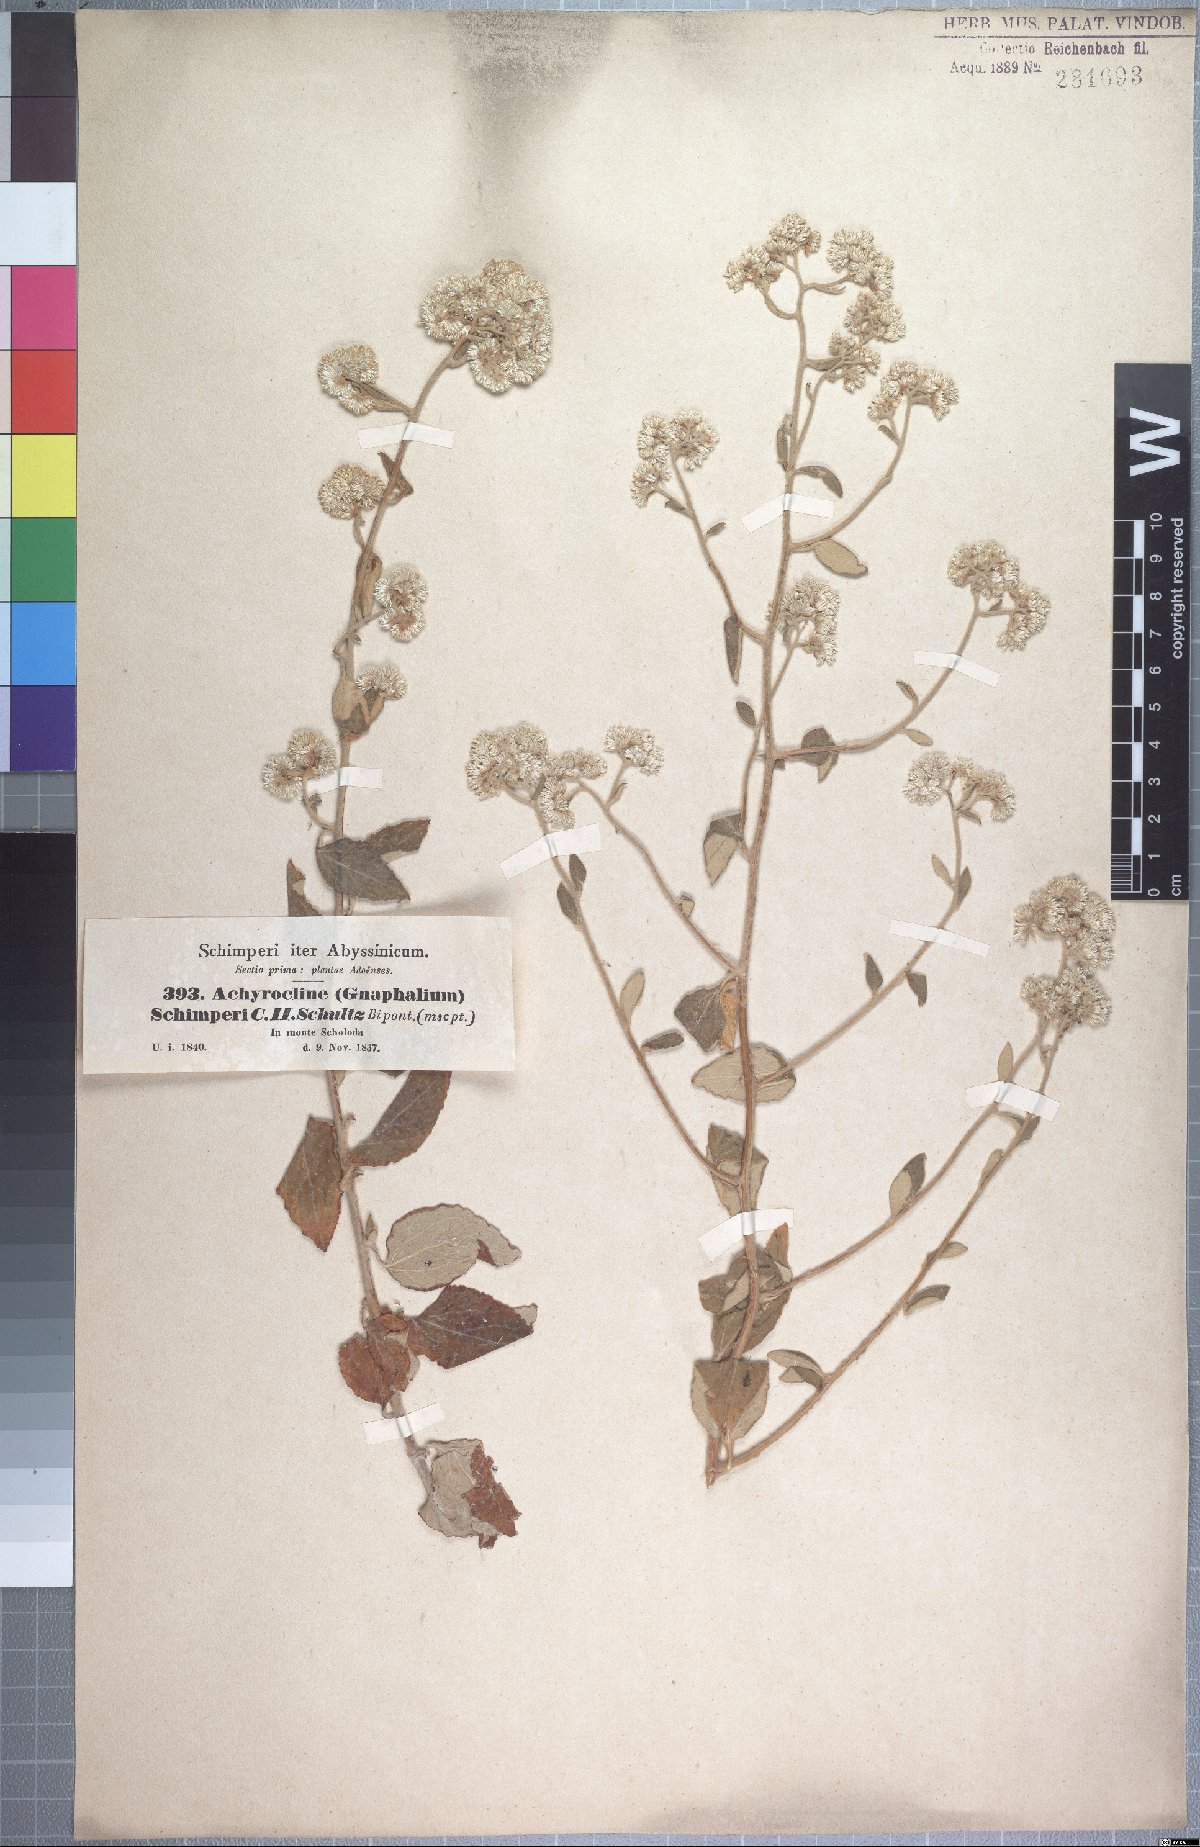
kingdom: Plantae
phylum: Tracheophyta
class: Magnoliopsida
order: Asterales
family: Asteraceae
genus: Helichrysum
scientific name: Helichrysum schimperi
